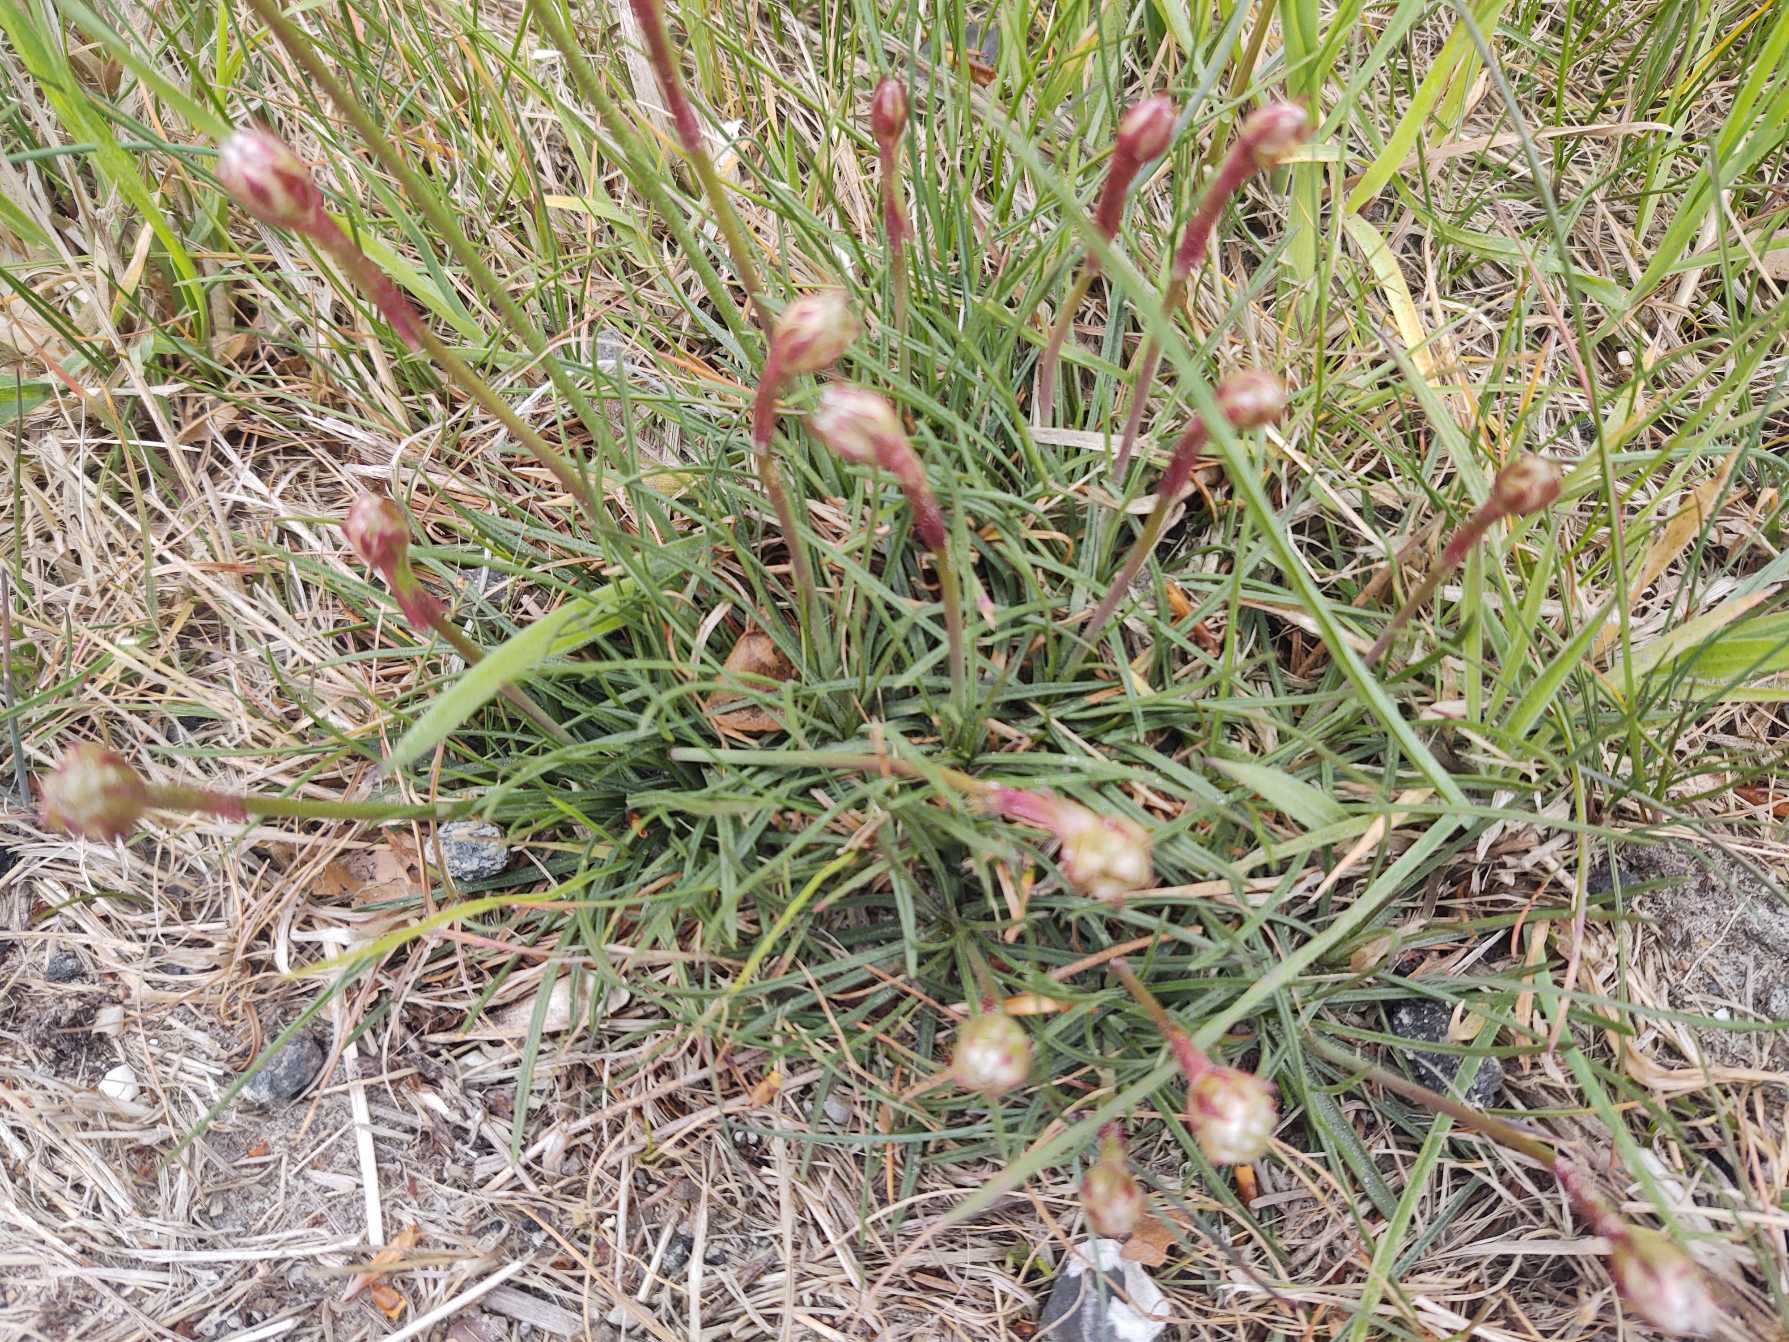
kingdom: Plantae
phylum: Tracheophyta
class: Magnoliopsida
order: Caryophyllales
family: Plumbaginaceae
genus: Armeria
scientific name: Armeria maritima
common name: Engelskgræs
